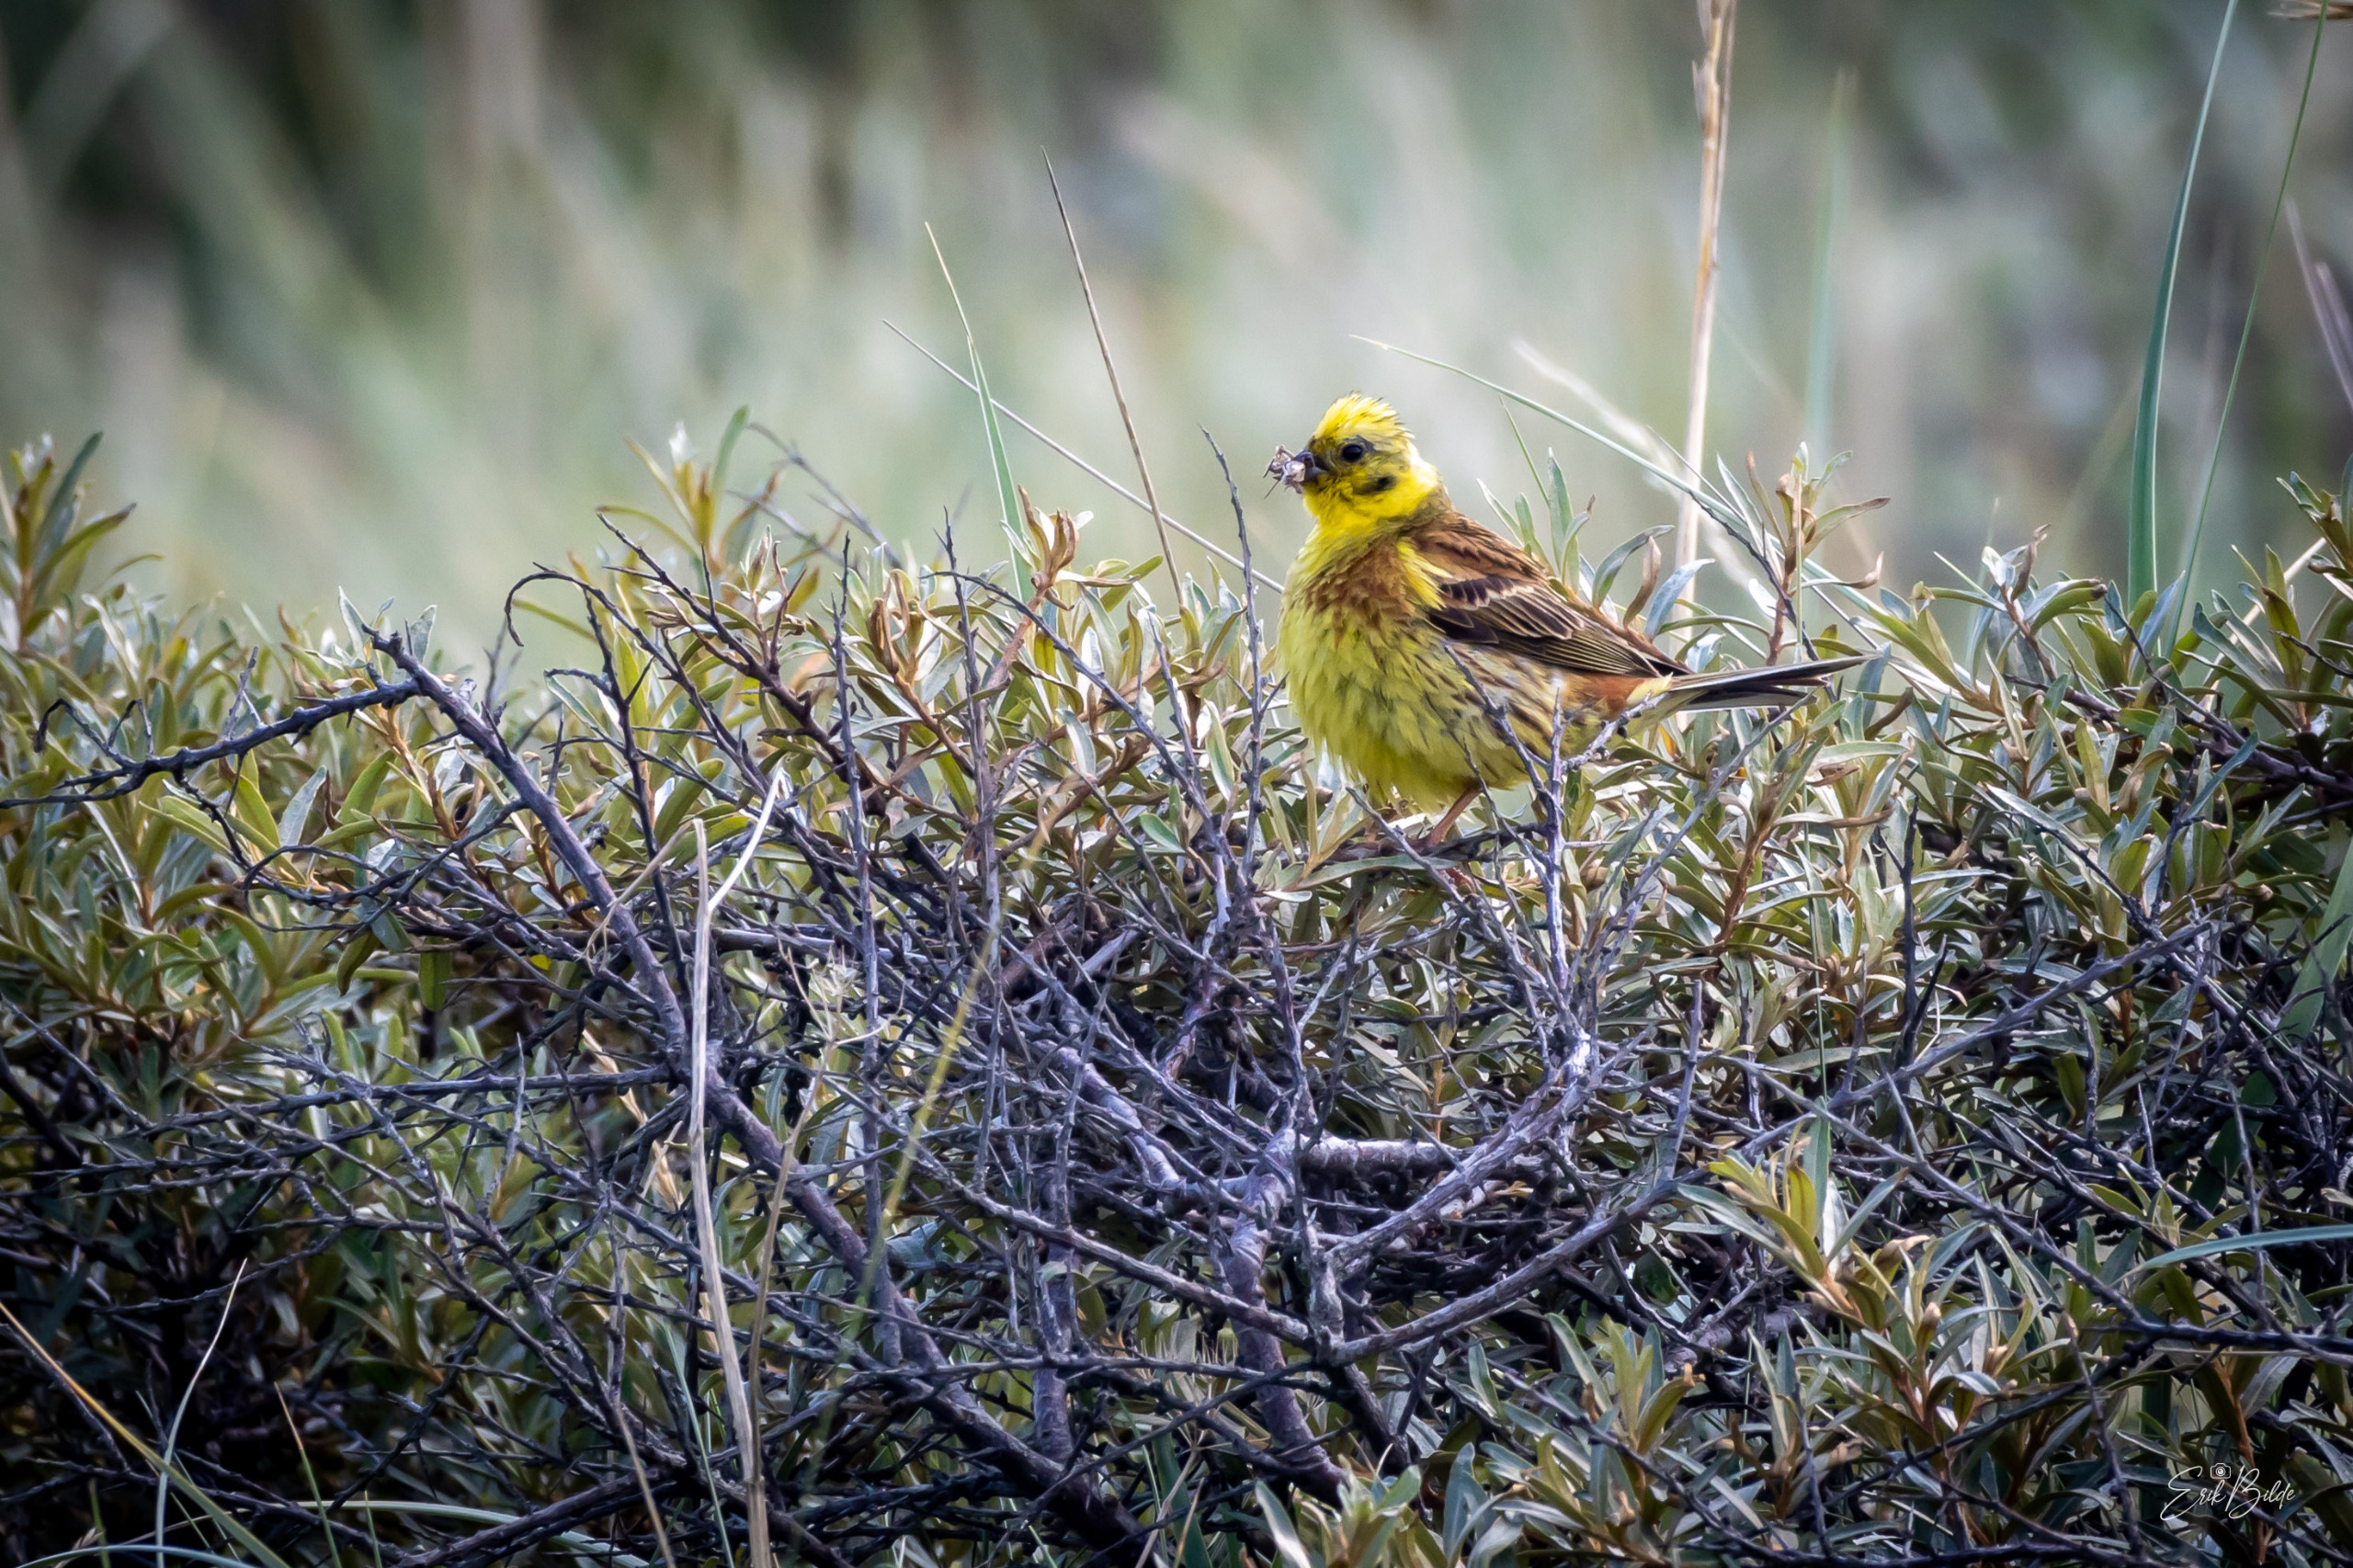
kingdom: Animalia
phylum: Chordata
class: Aves
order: Passeriformes
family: Emberizidae
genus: Emberiza
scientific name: Emberiza citrinella
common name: Gulspurv
